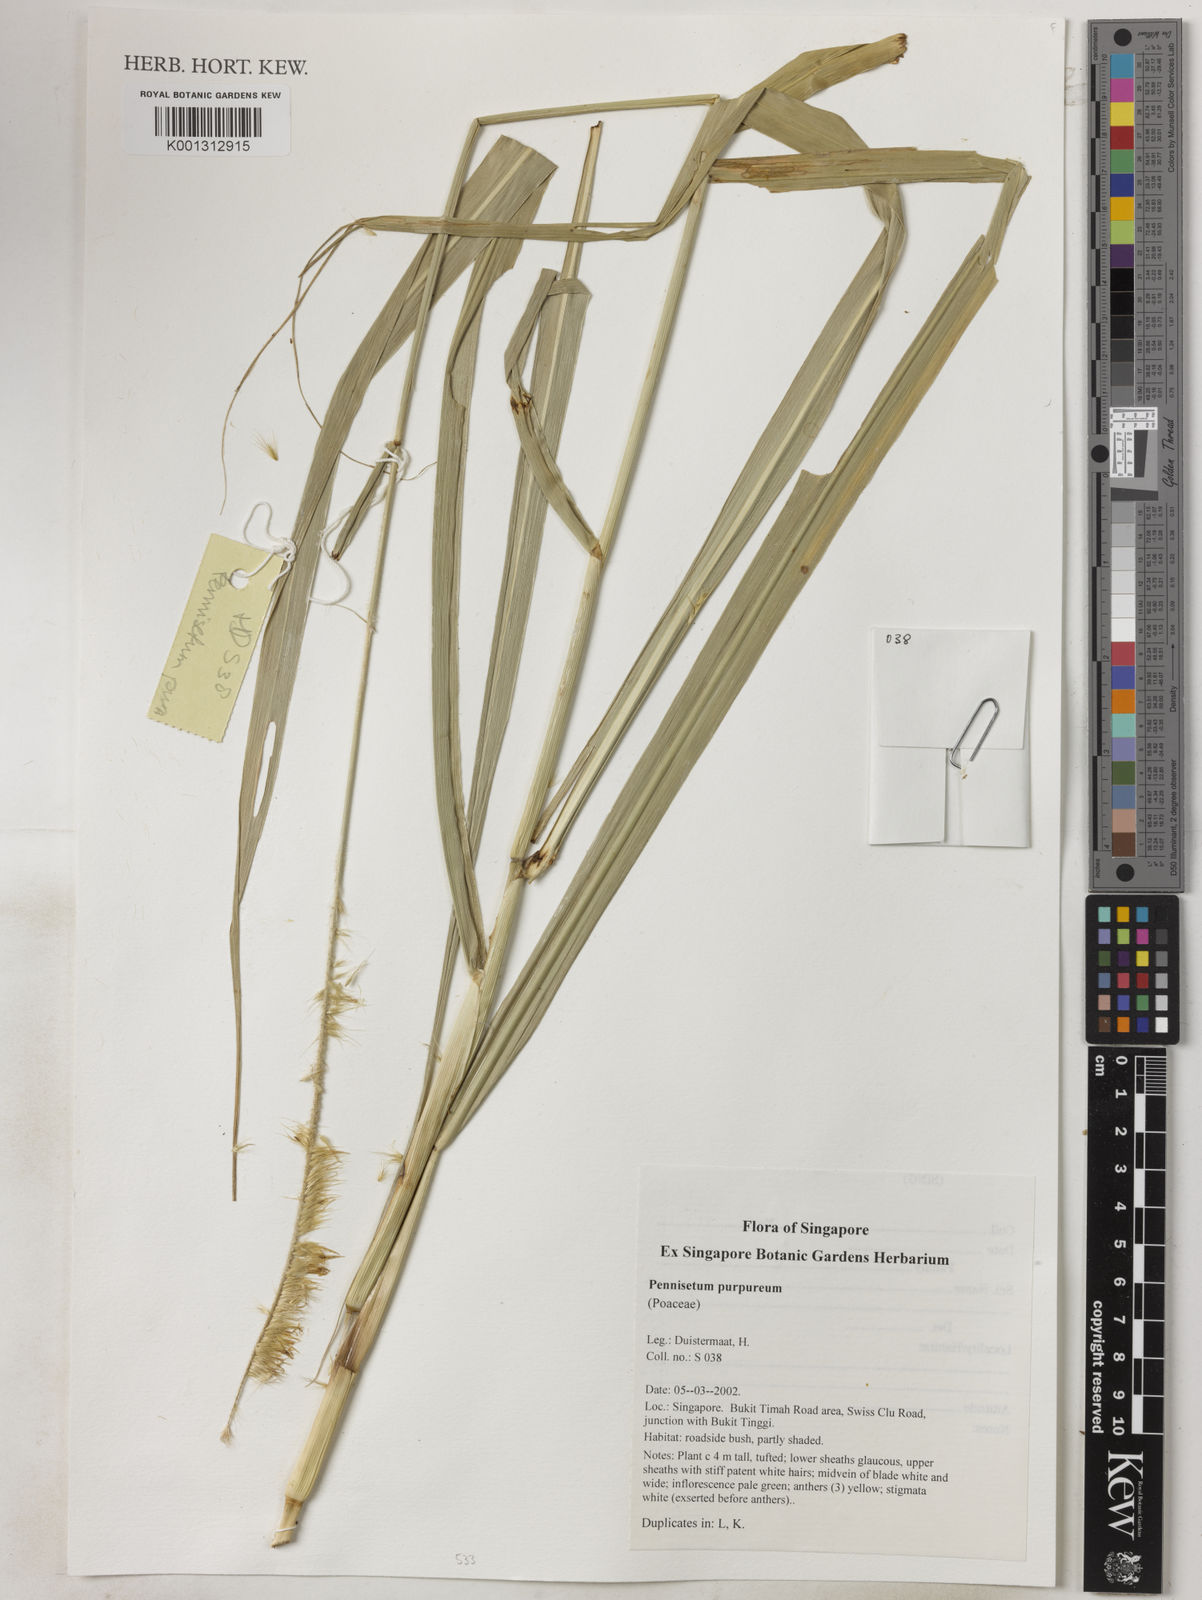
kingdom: Plantae
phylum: Tracheophyta
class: Liliopsida
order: Poales
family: Poaceae
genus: Cenchrus
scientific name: Cenchrus purpureus
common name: Elephant grass
